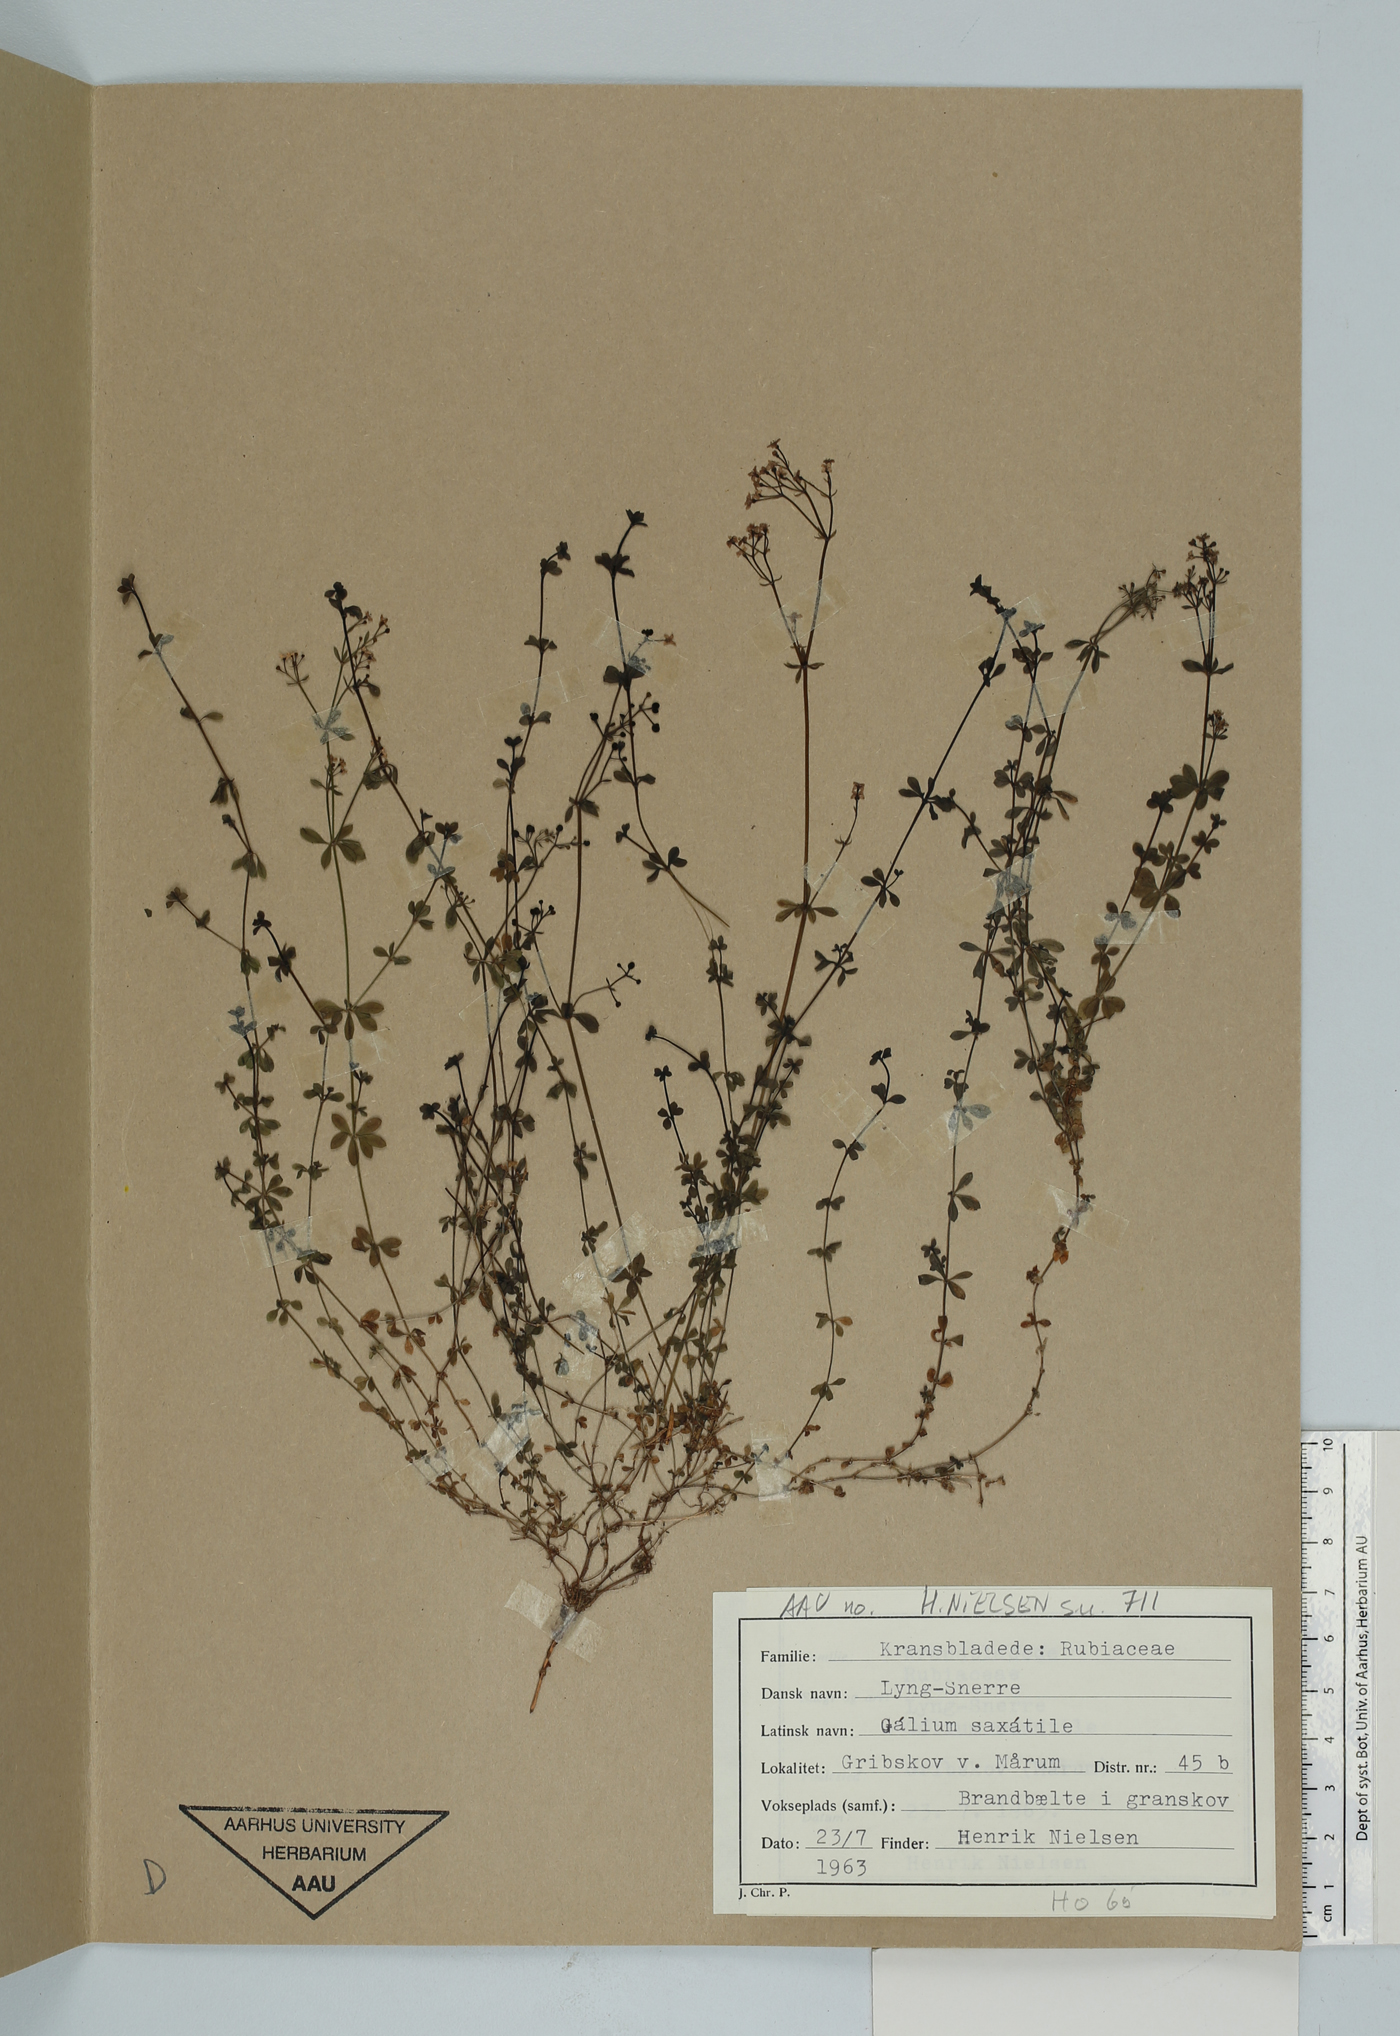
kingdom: Plantae
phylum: Tracheophyta
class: Magnoliopsida
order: Gentianales
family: Rubiaceae
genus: Galium
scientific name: Galium saxatile
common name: Heath bedstraw
